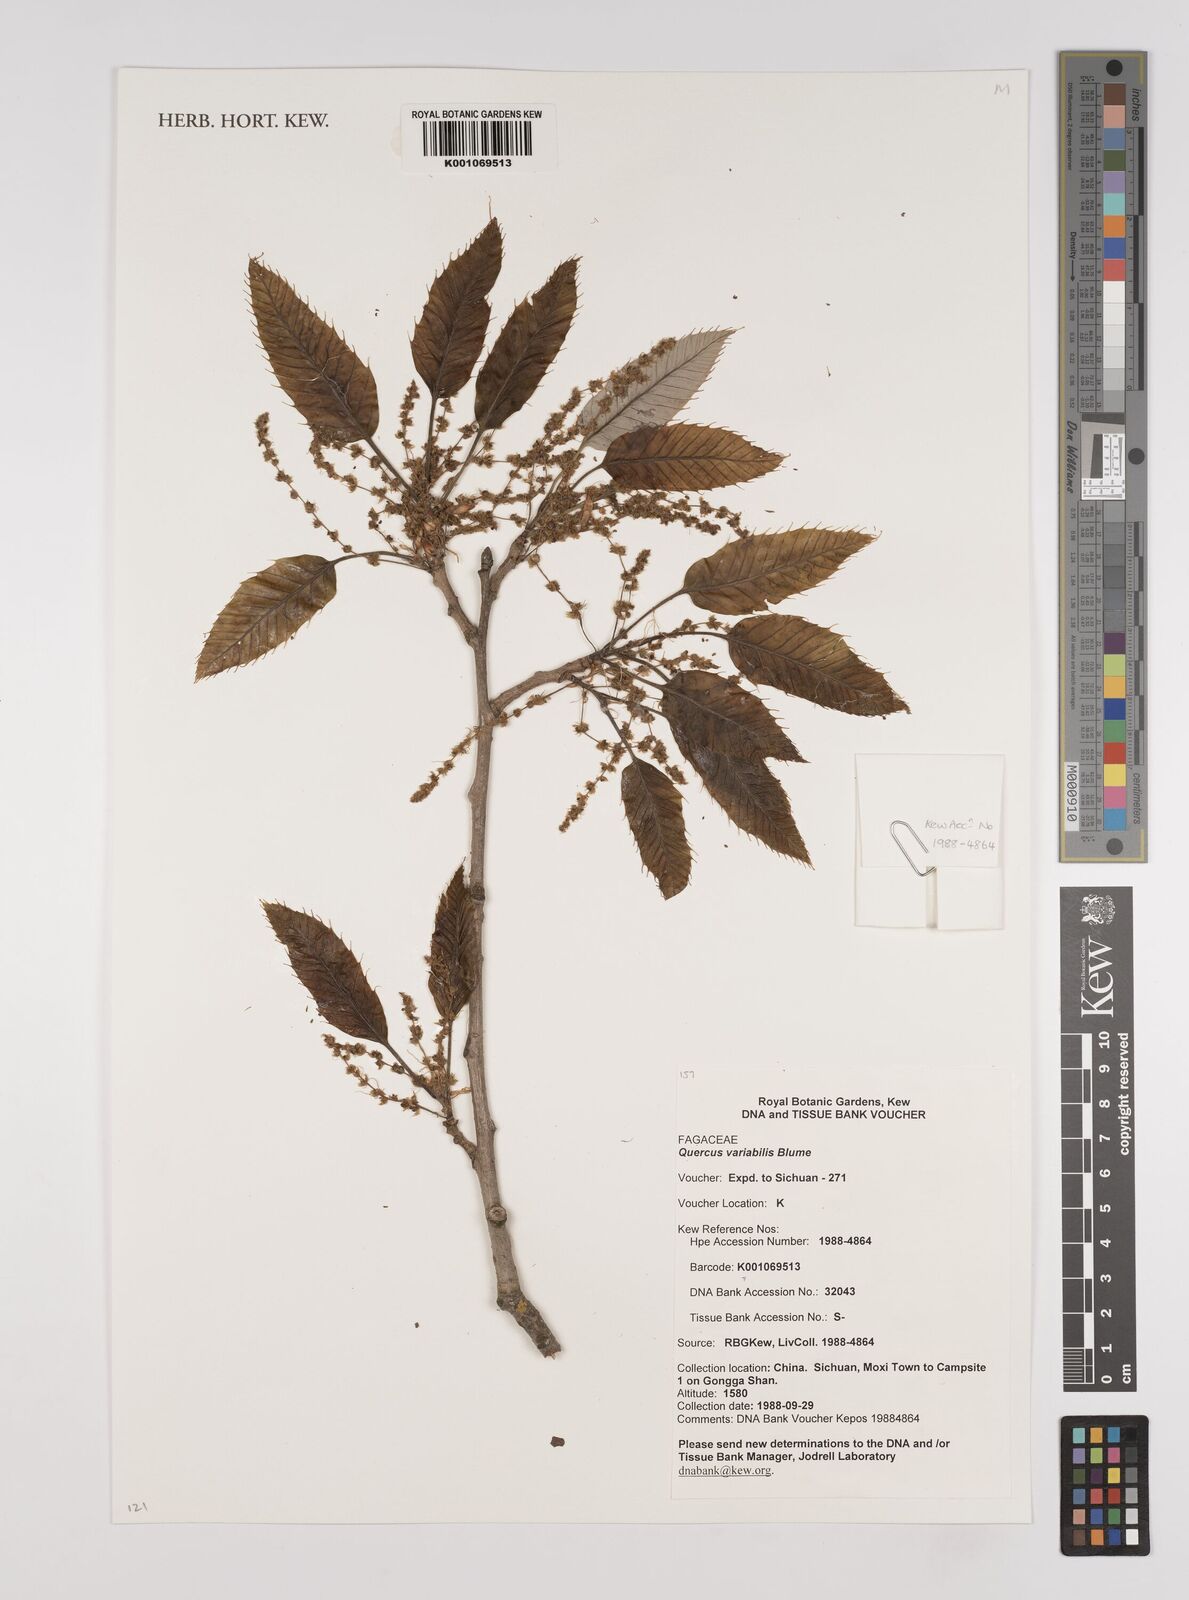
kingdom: Plantae
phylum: Tracheophyta
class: Magnoliopsida
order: Fagales
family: Fagaceae
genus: Quercus
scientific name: Quercus variabilis
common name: Chinese cork oak
